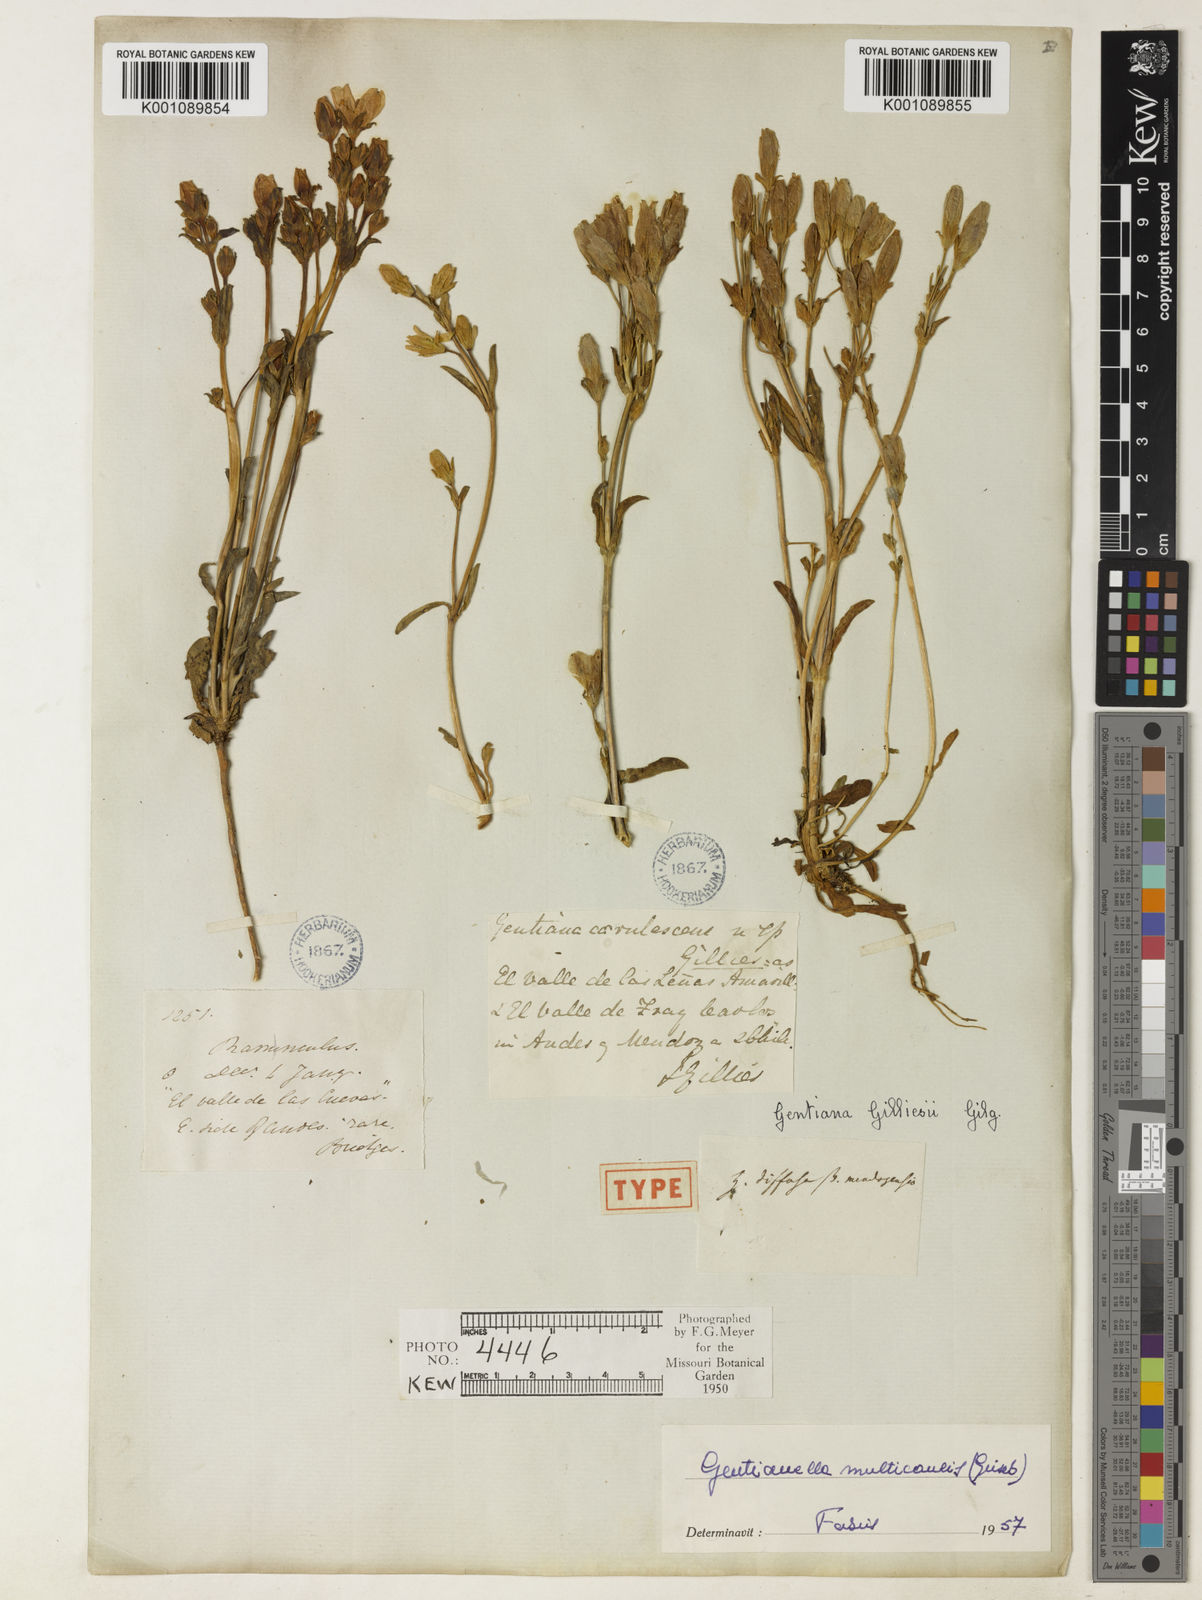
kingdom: Plantae
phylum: Tracheophyta
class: Magnoliopsida
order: Gentianales
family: Gentianaceae
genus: Gentianella
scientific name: Gentianella multicaulis
